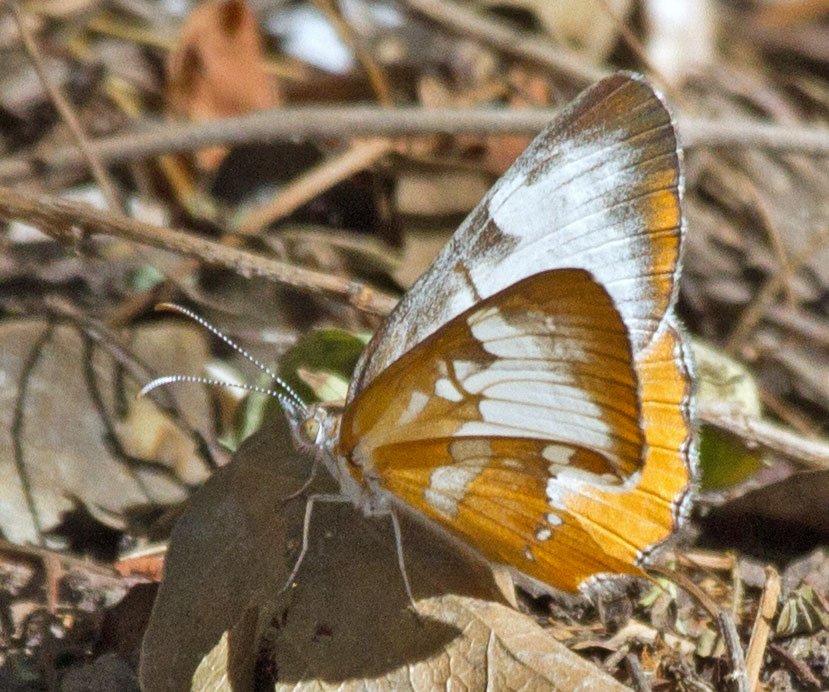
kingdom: Animalia
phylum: Arthropoda
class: Insecta
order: Lepidoptera
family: Nymphalidae
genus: Mestra
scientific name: Mestra amymone
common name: Common Mestra
